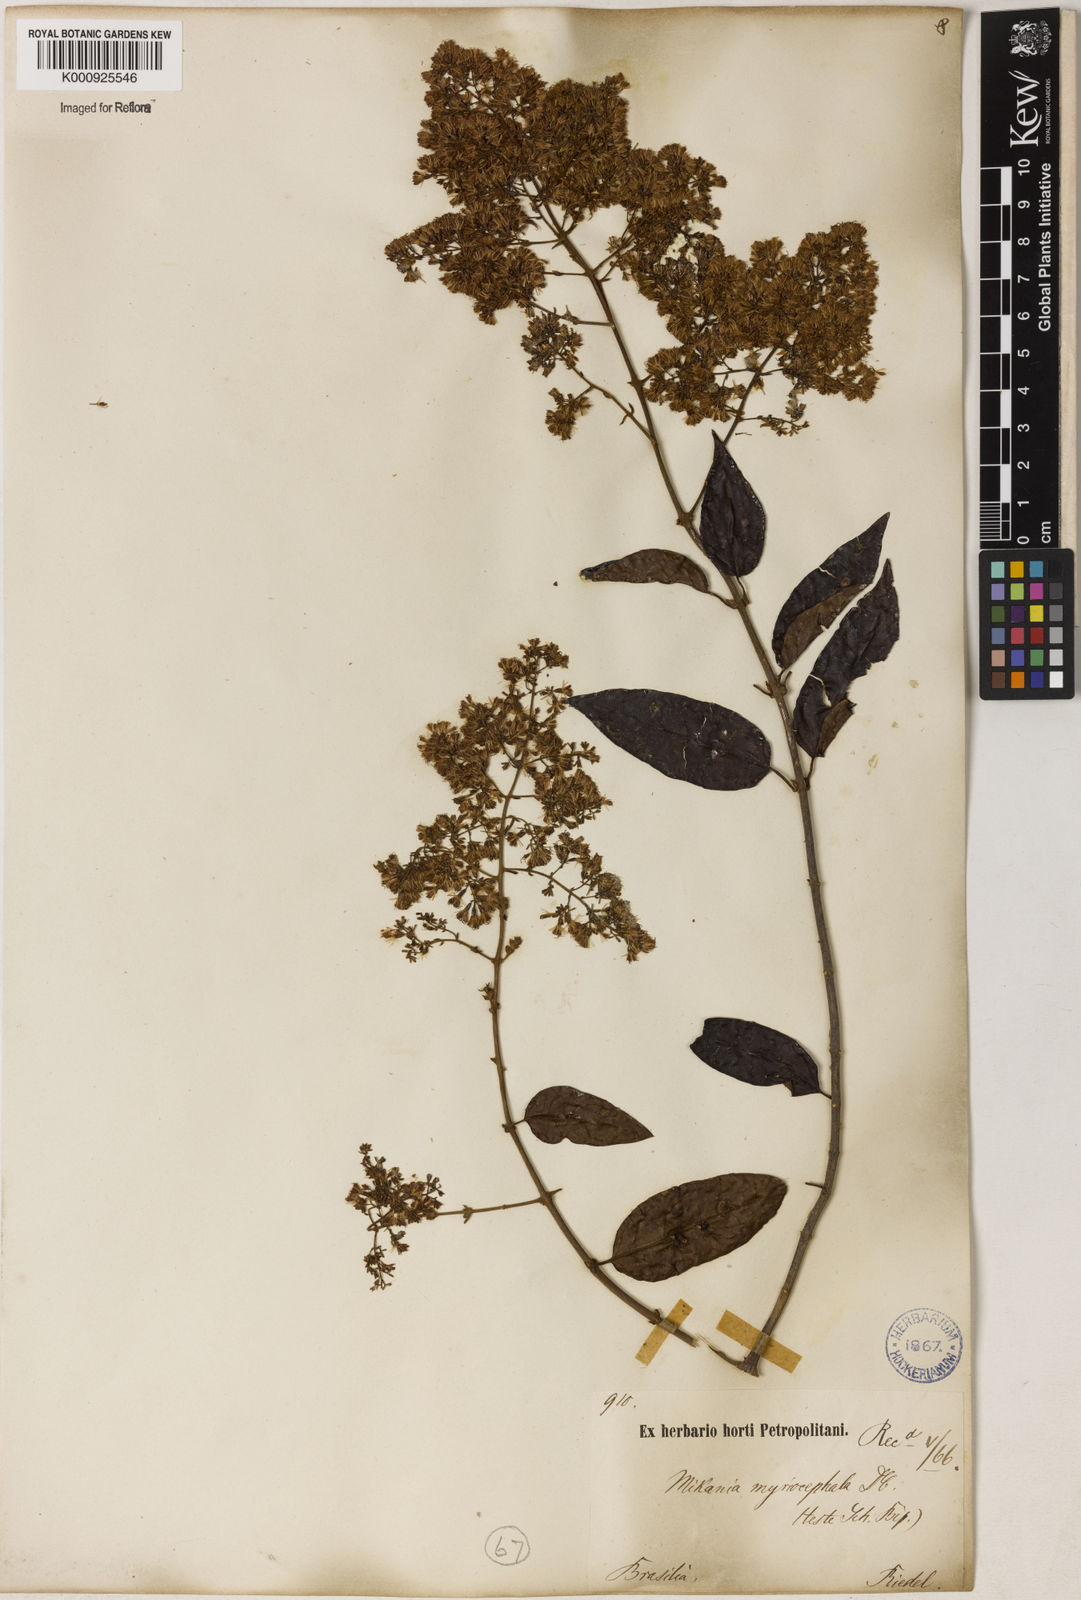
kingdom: Plantae
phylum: Tracheophyta
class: Magnoliopsida
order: Asterales
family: Asteraceae
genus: Mikania
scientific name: Mikania myriocephala
